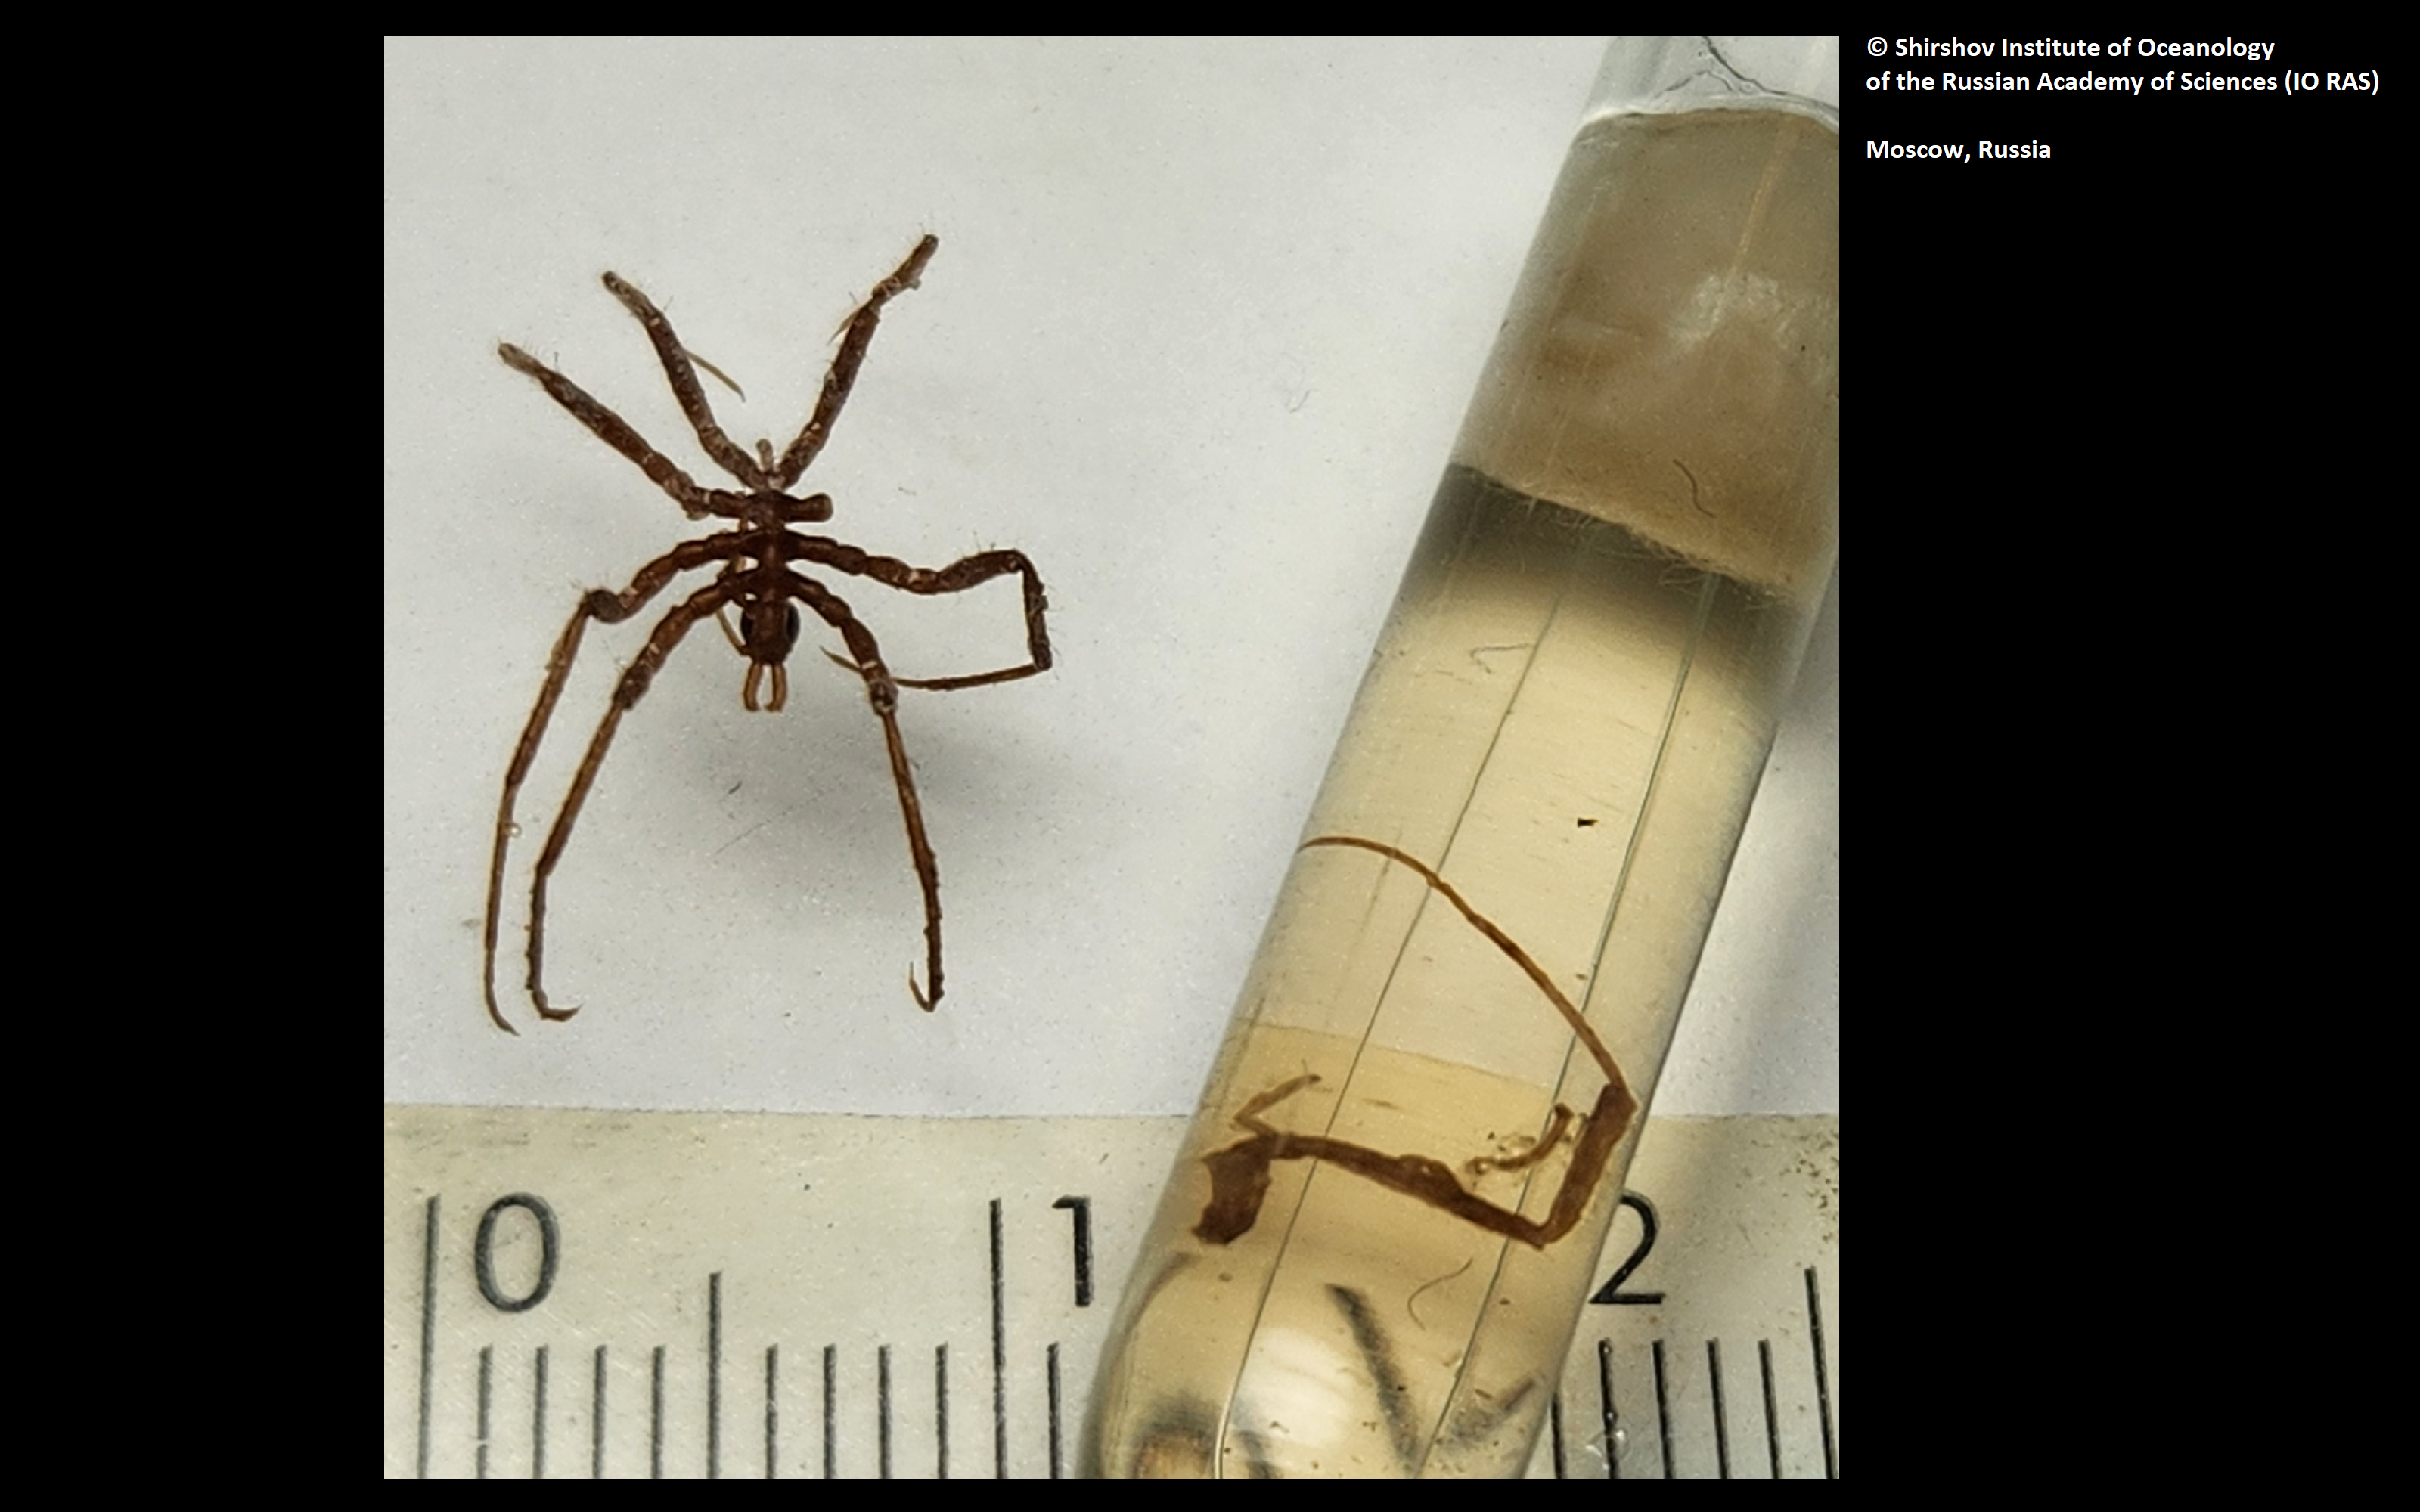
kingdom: Animalia
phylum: Arthropoda
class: Pycnogonida
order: Pantopoda
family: Ascorhynchidae
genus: Ascorhynchus
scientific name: Ascorhynchus mariae
